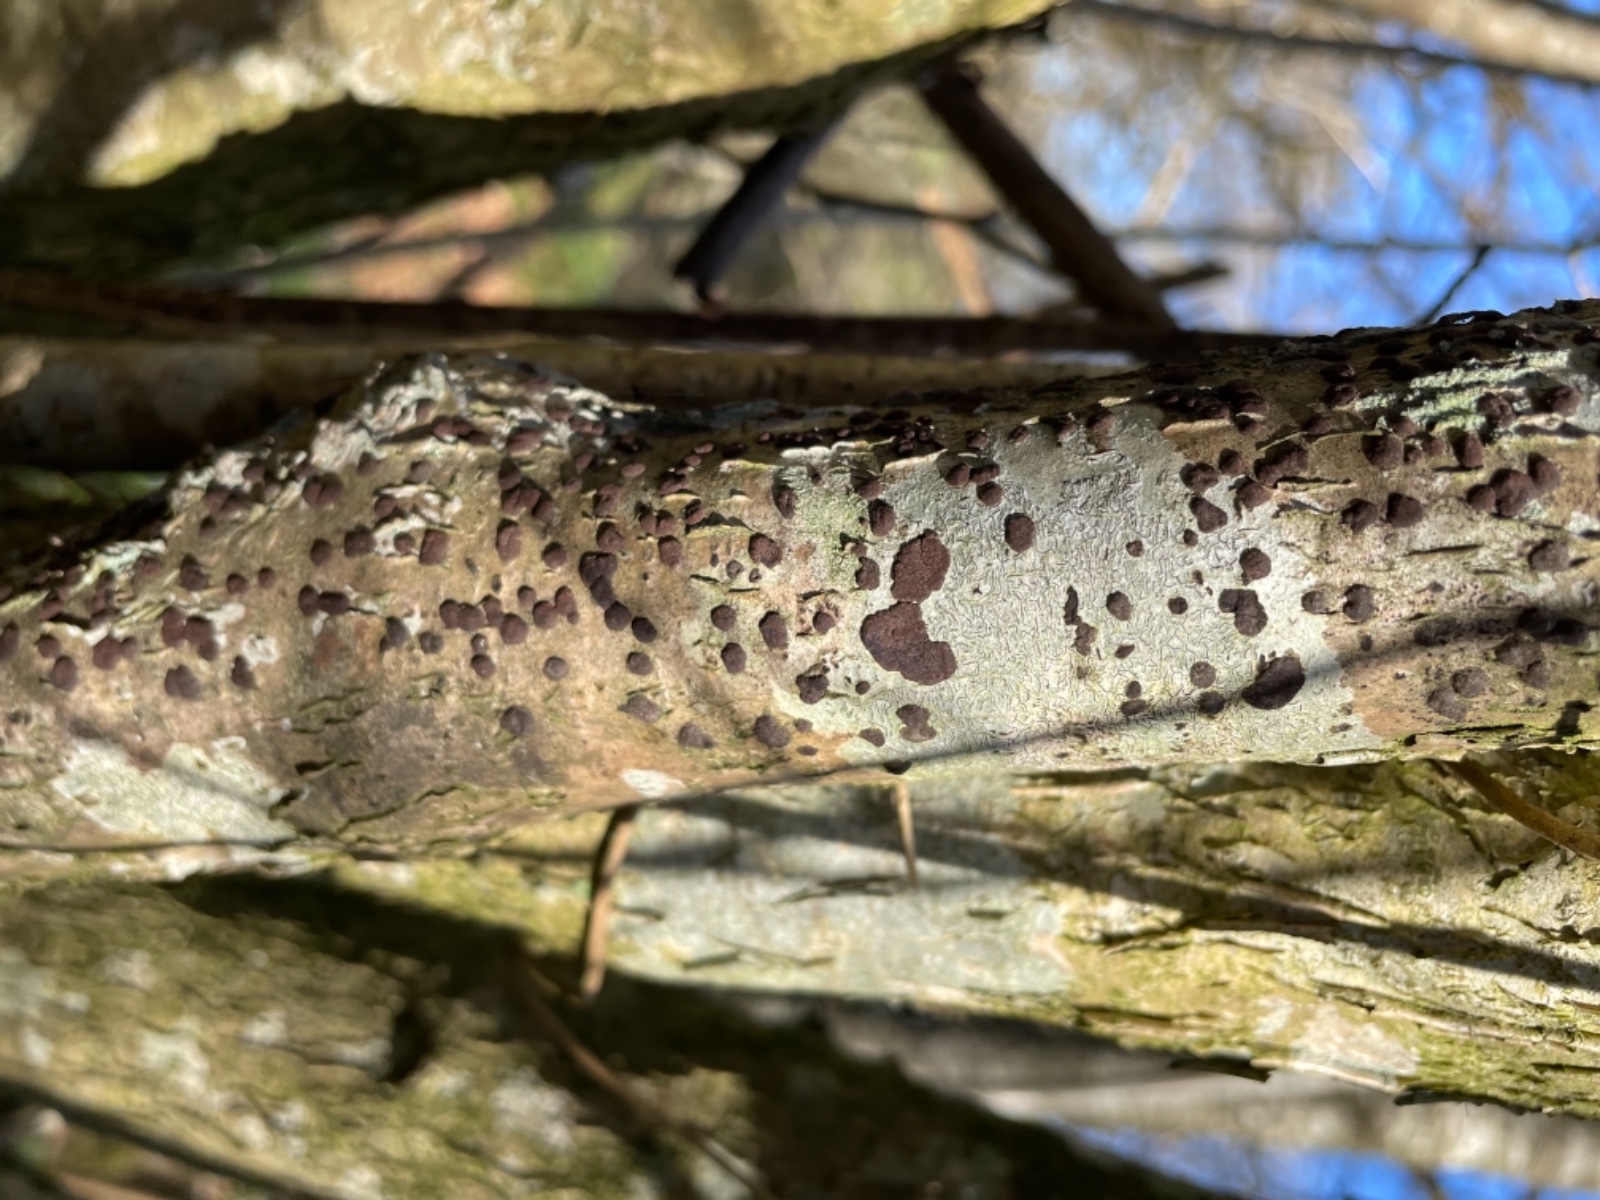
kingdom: Fungi
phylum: Ascomycota
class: Sordariomycetes
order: Xylariales
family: Hypoxylaceae
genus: Hypoxylon
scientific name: Hypoxylon fuscum
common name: kegleformet kulbær
